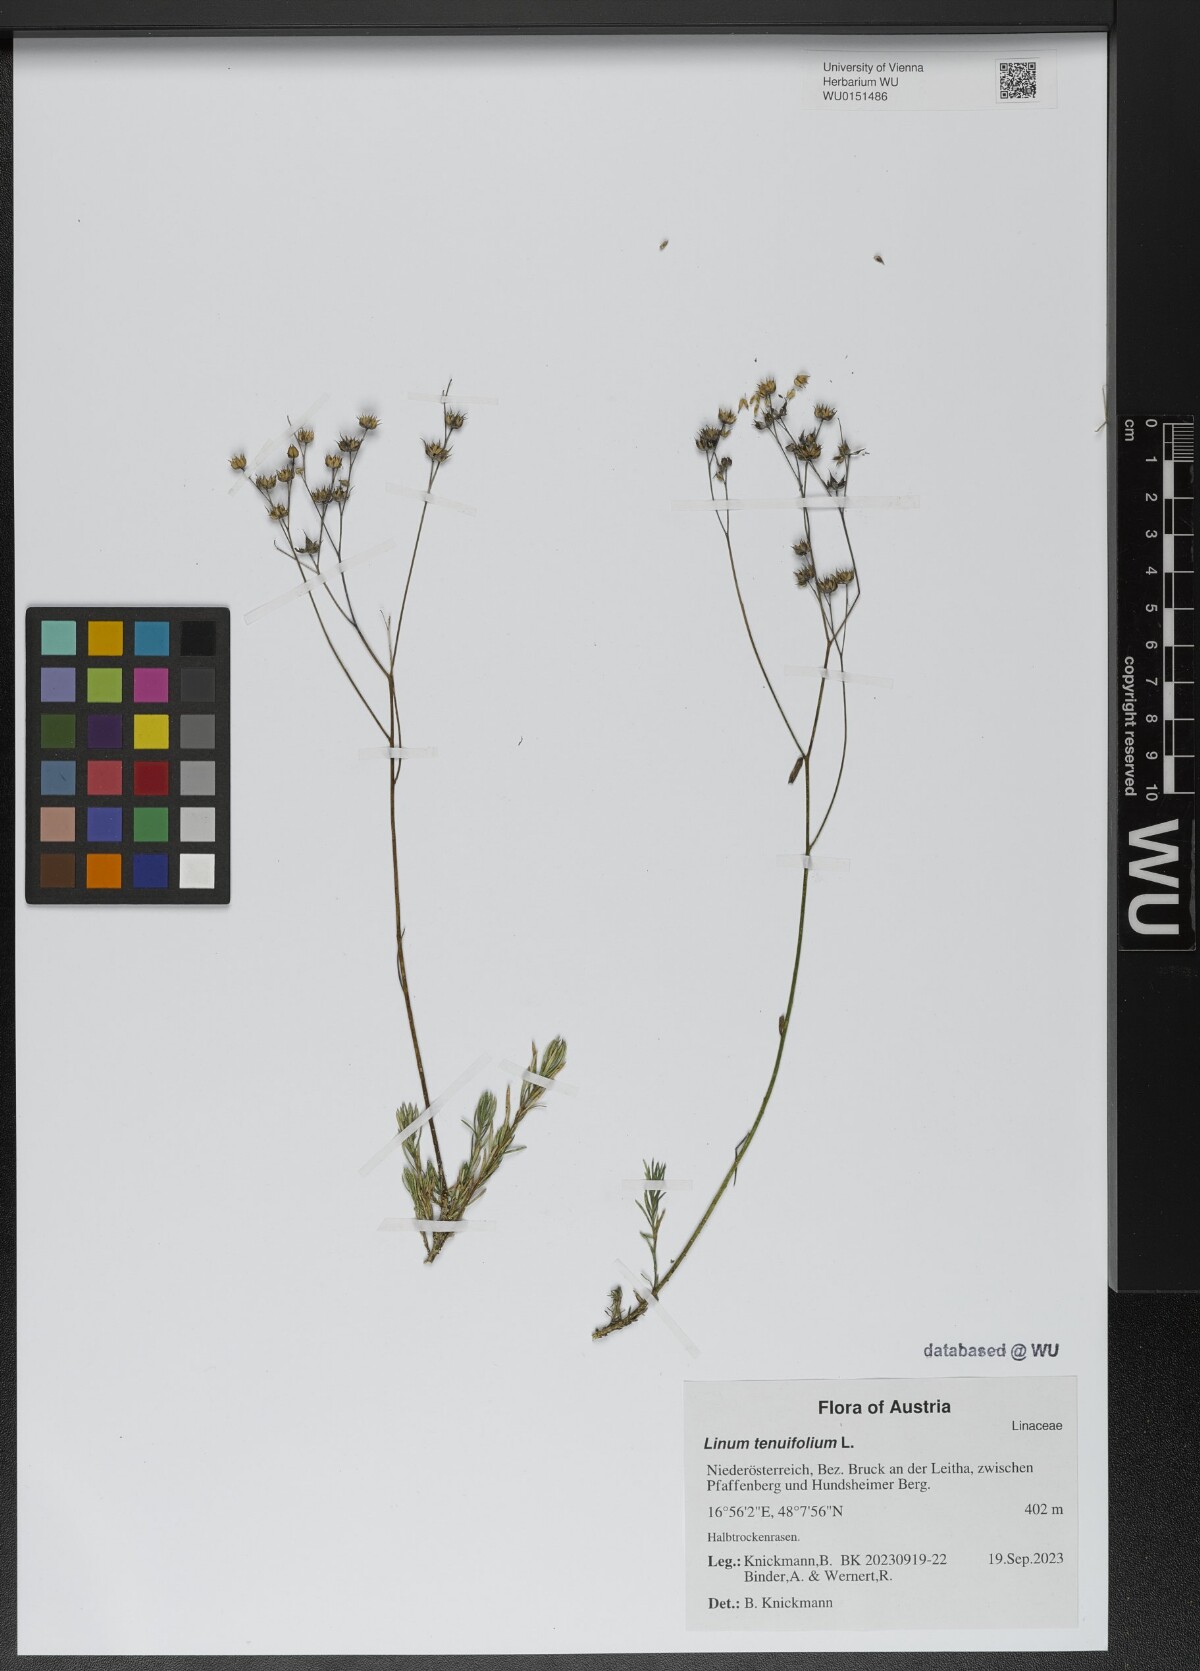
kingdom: Plantae
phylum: Tracheophyta
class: Magnoliopsida
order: Malpighiales
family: Linaceae
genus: Linum
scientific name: Linum tenuifolium
